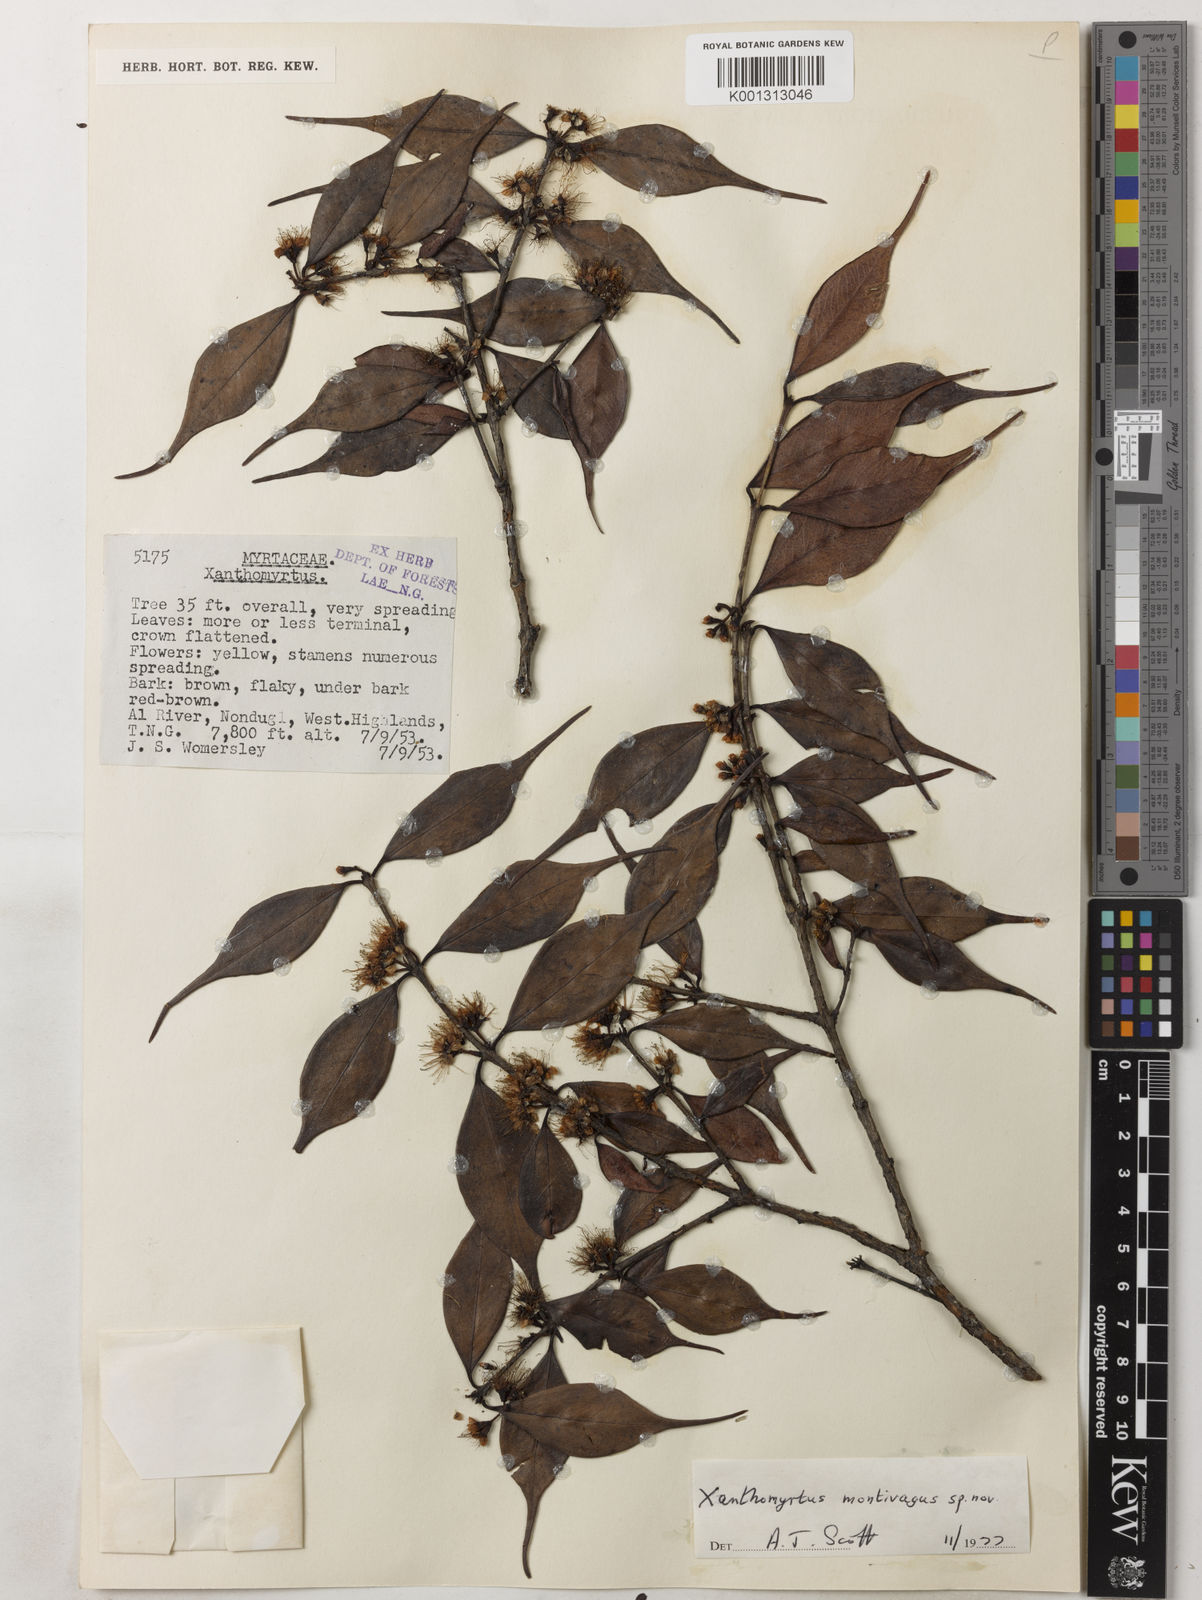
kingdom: Plantae
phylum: Tracheophyta
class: Magnoliopsida
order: Myrtales
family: Myrtaceae
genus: Xanthomyrtus
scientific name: Xanthomyrtus montivaga
